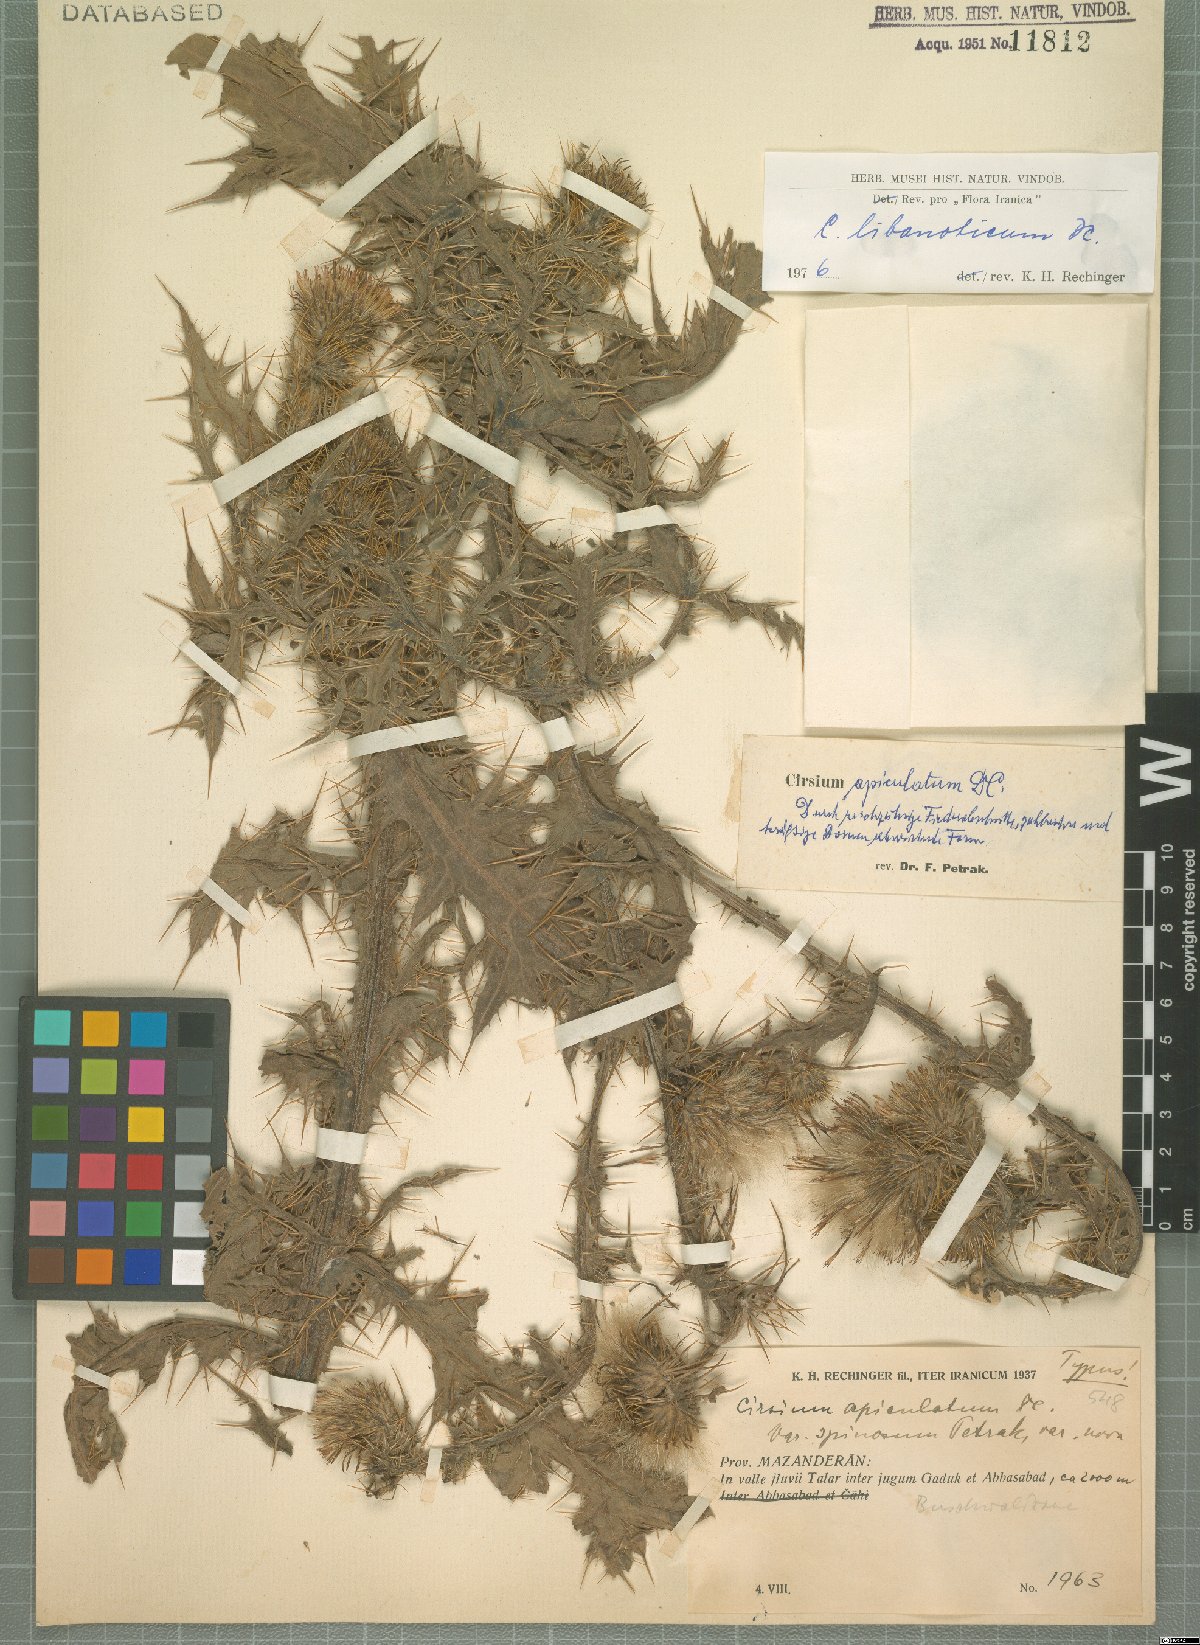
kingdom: Plantae
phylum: Tracheophyta
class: Magnoliopsida
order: Asterales
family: Asteraceae
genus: Cirsium
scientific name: Cirsium libanoticum
